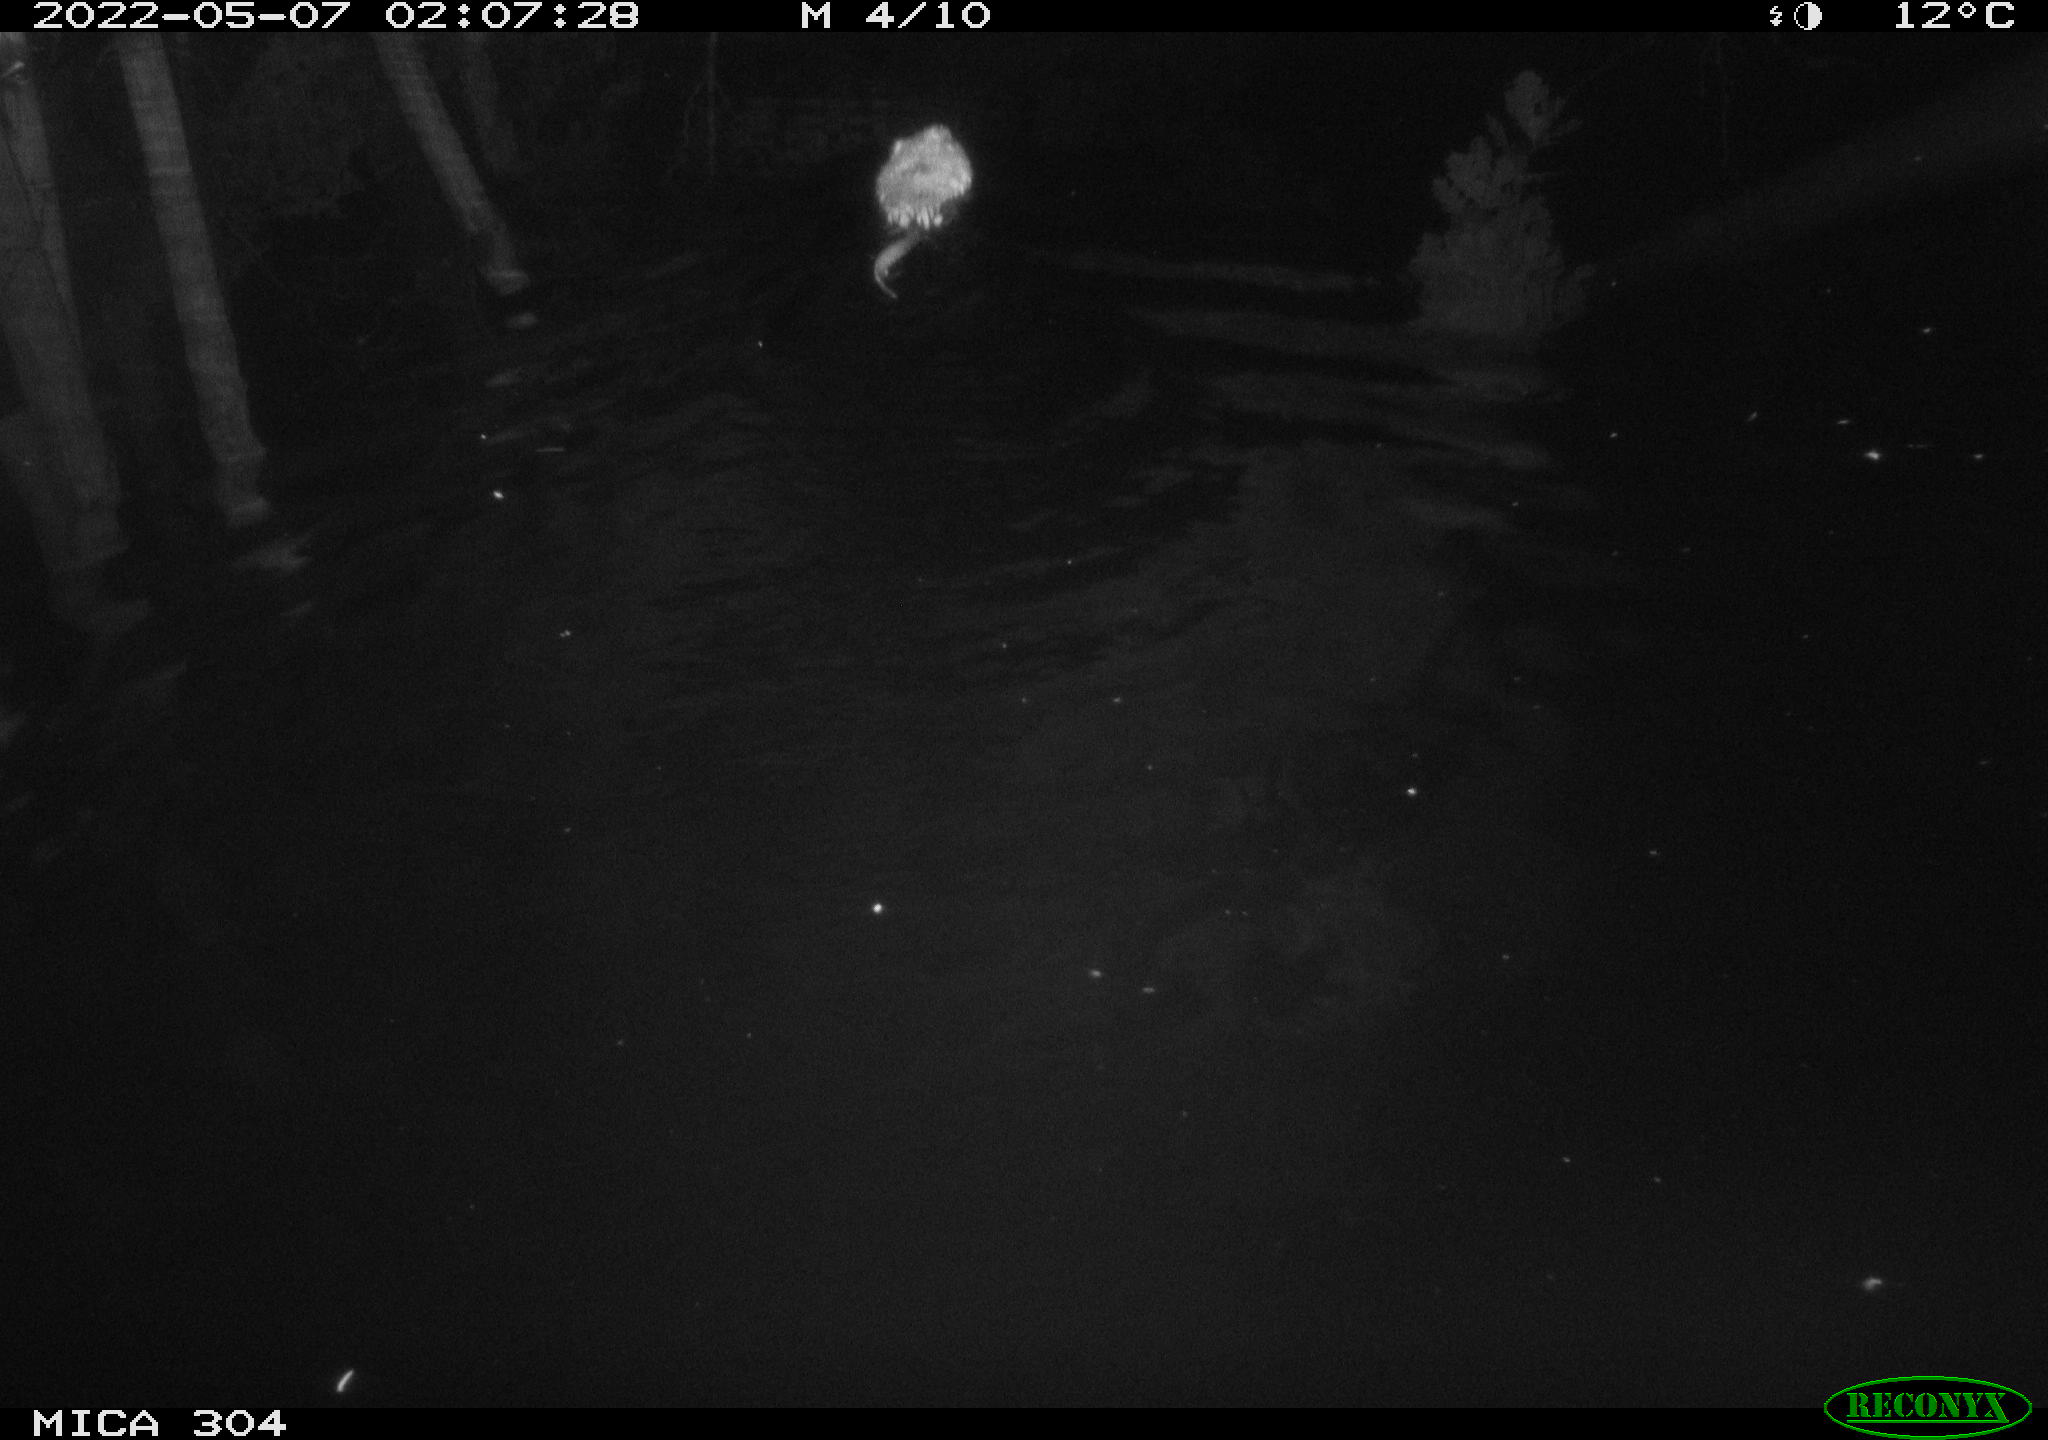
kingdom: Animalia
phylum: Chordata
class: Mammalia
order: Rodentia
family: Cricetidae
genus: Ondatra
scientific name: Ondatra zibethicus
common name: Muskrat
